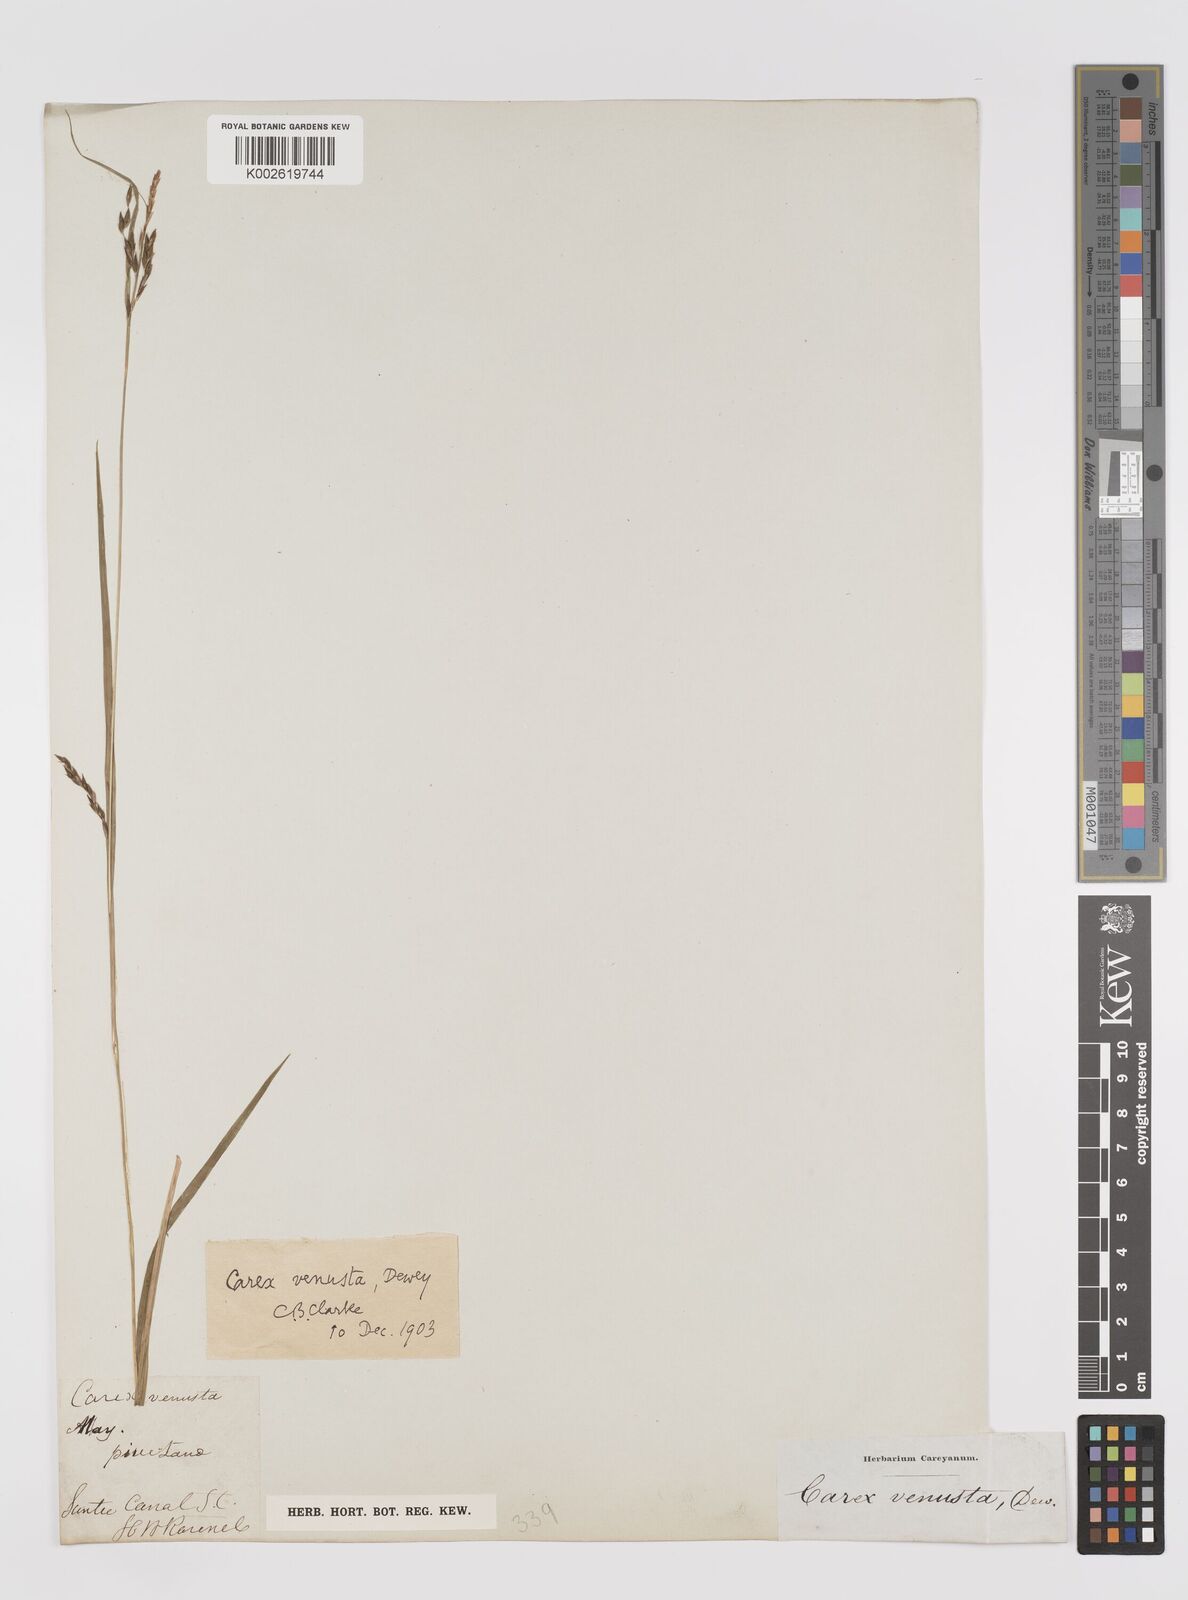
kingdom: Plantae
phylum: Tracheophyta
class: Liliopsida
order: Poales
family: Cyperaceae
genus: Carex
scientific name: Carex venusta
